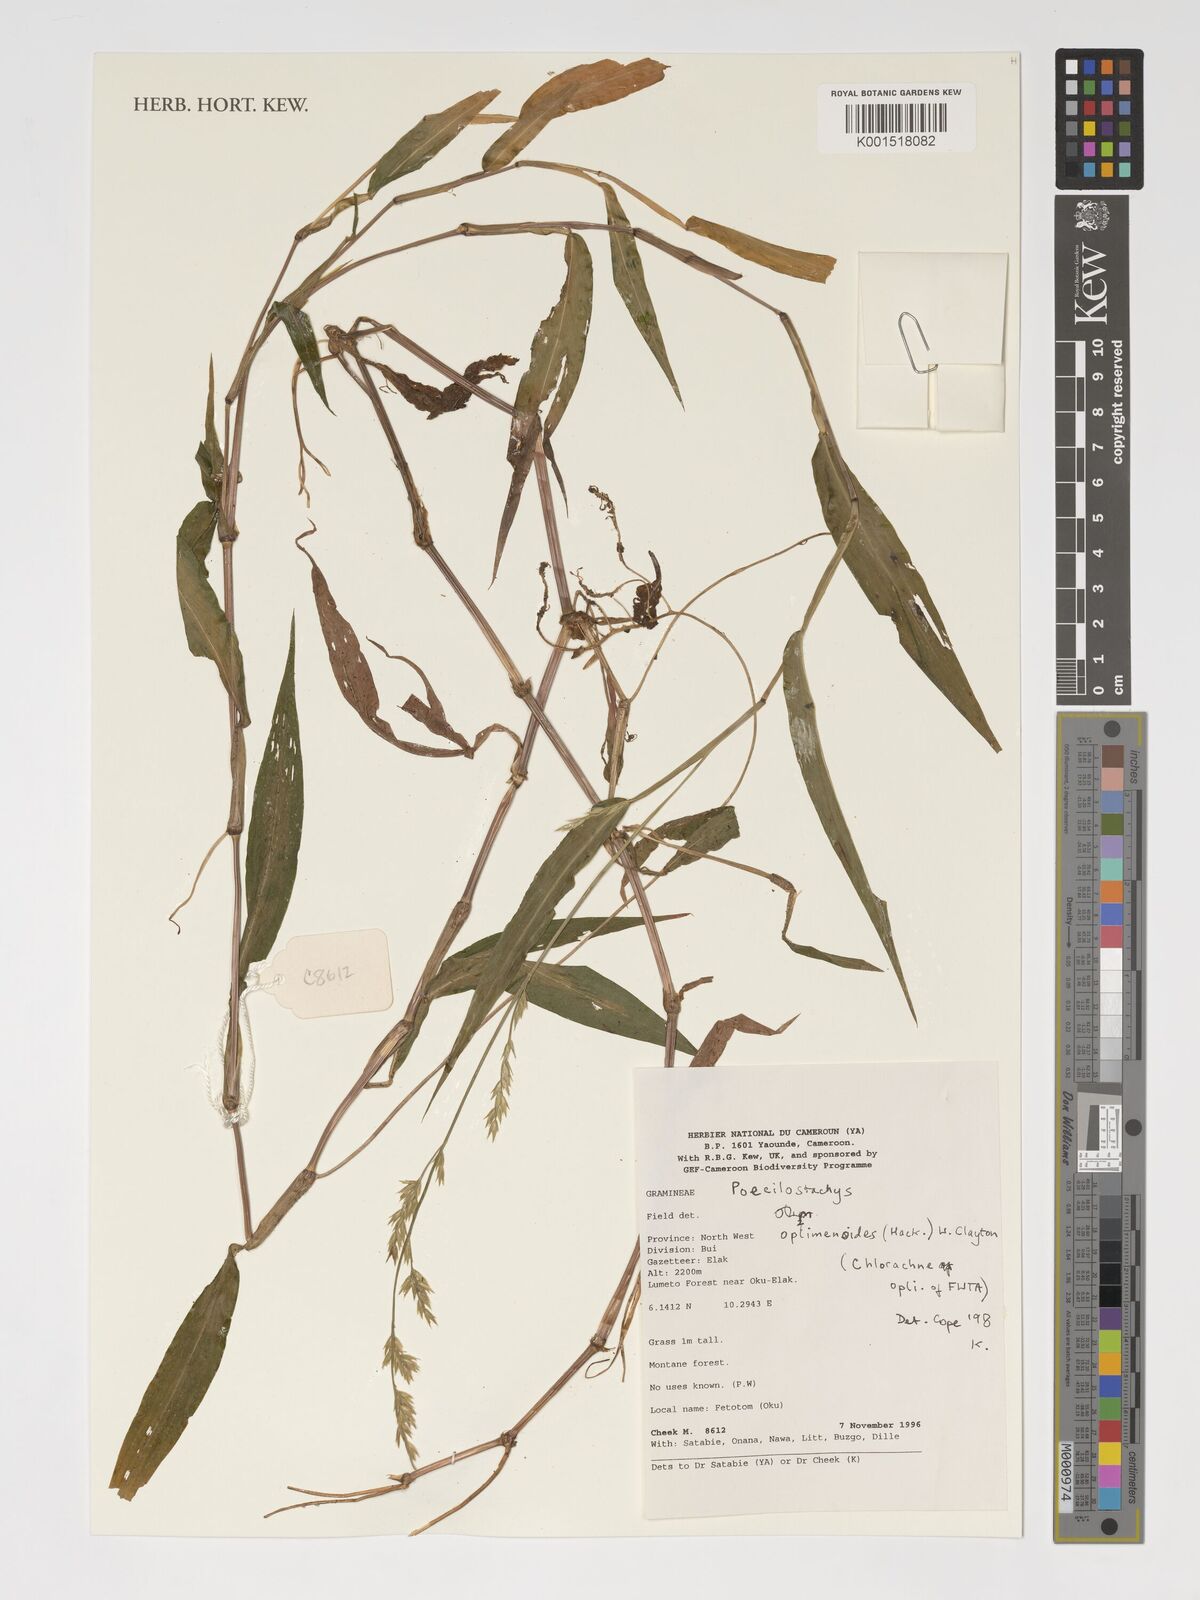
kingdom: Plantae
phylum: Tracheophyta
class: Liliopsida
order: Poales
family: Poaceae
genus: Poecilostachys
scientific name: Poecilostachys oplismenoides
